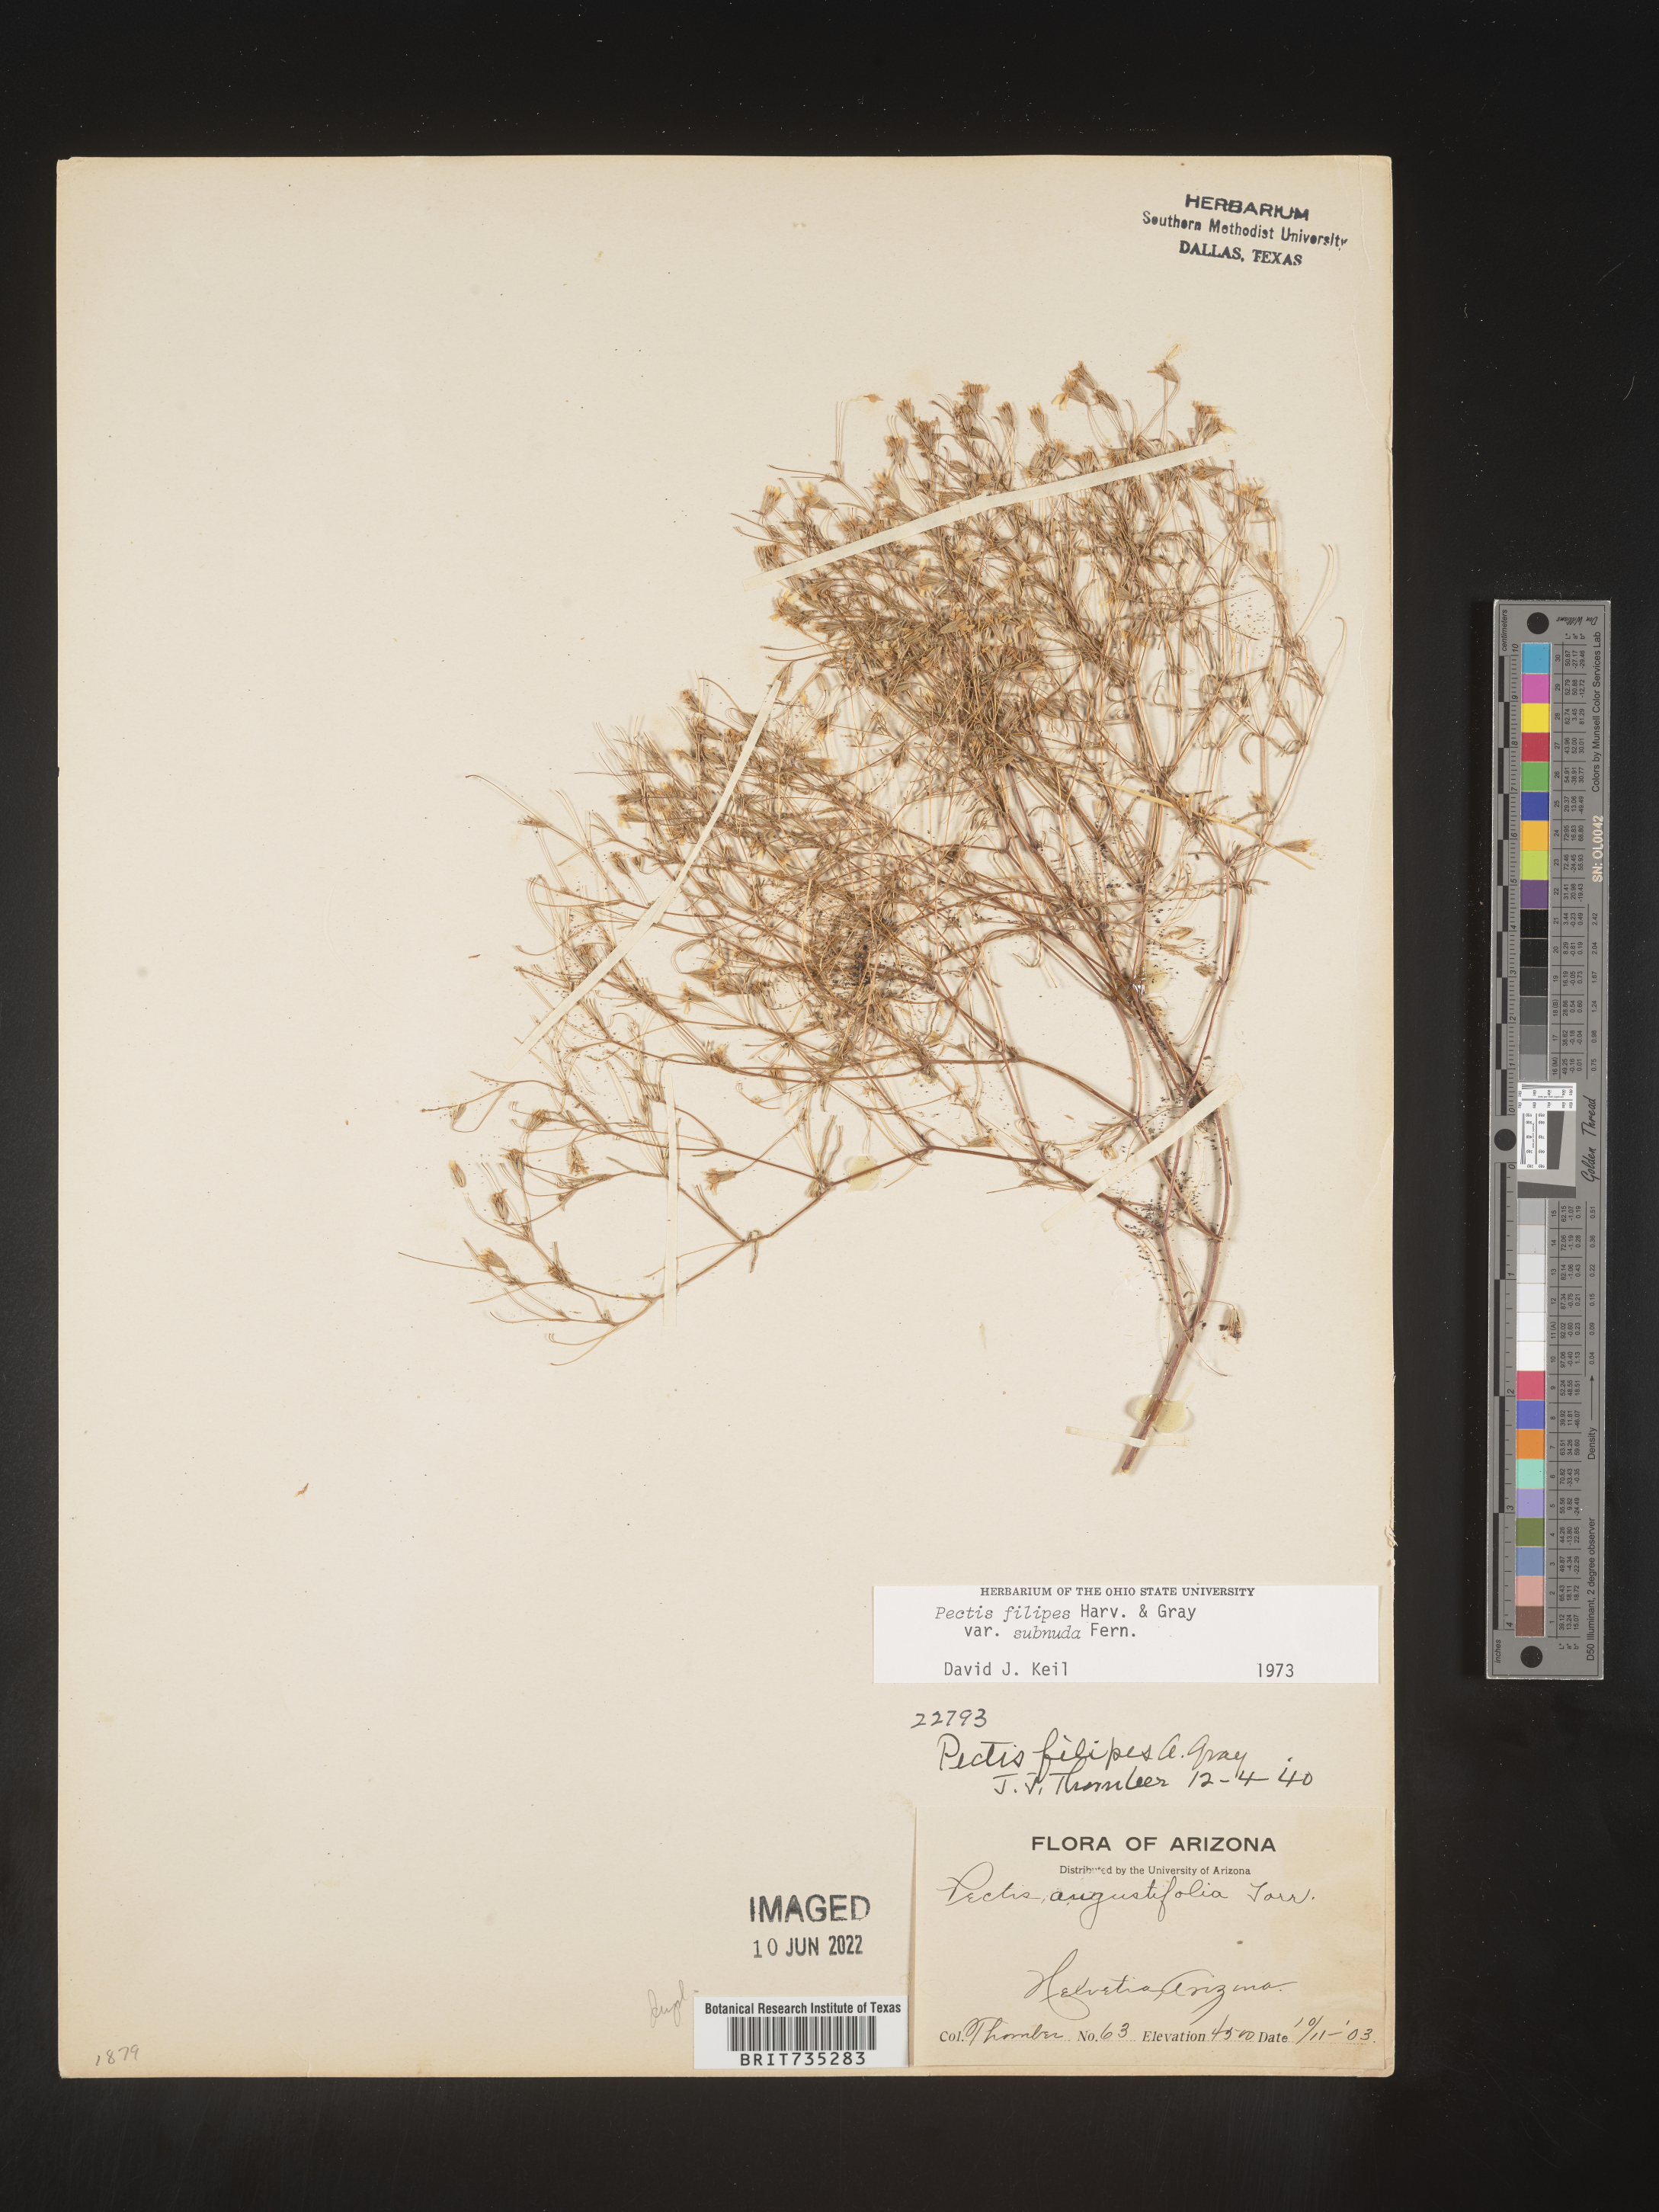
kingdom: Plantae
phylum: Tracheophyta
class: Magnoliopsida
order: Asterales
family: Asteraceae
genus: Pectis
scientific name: Pectis filipes
